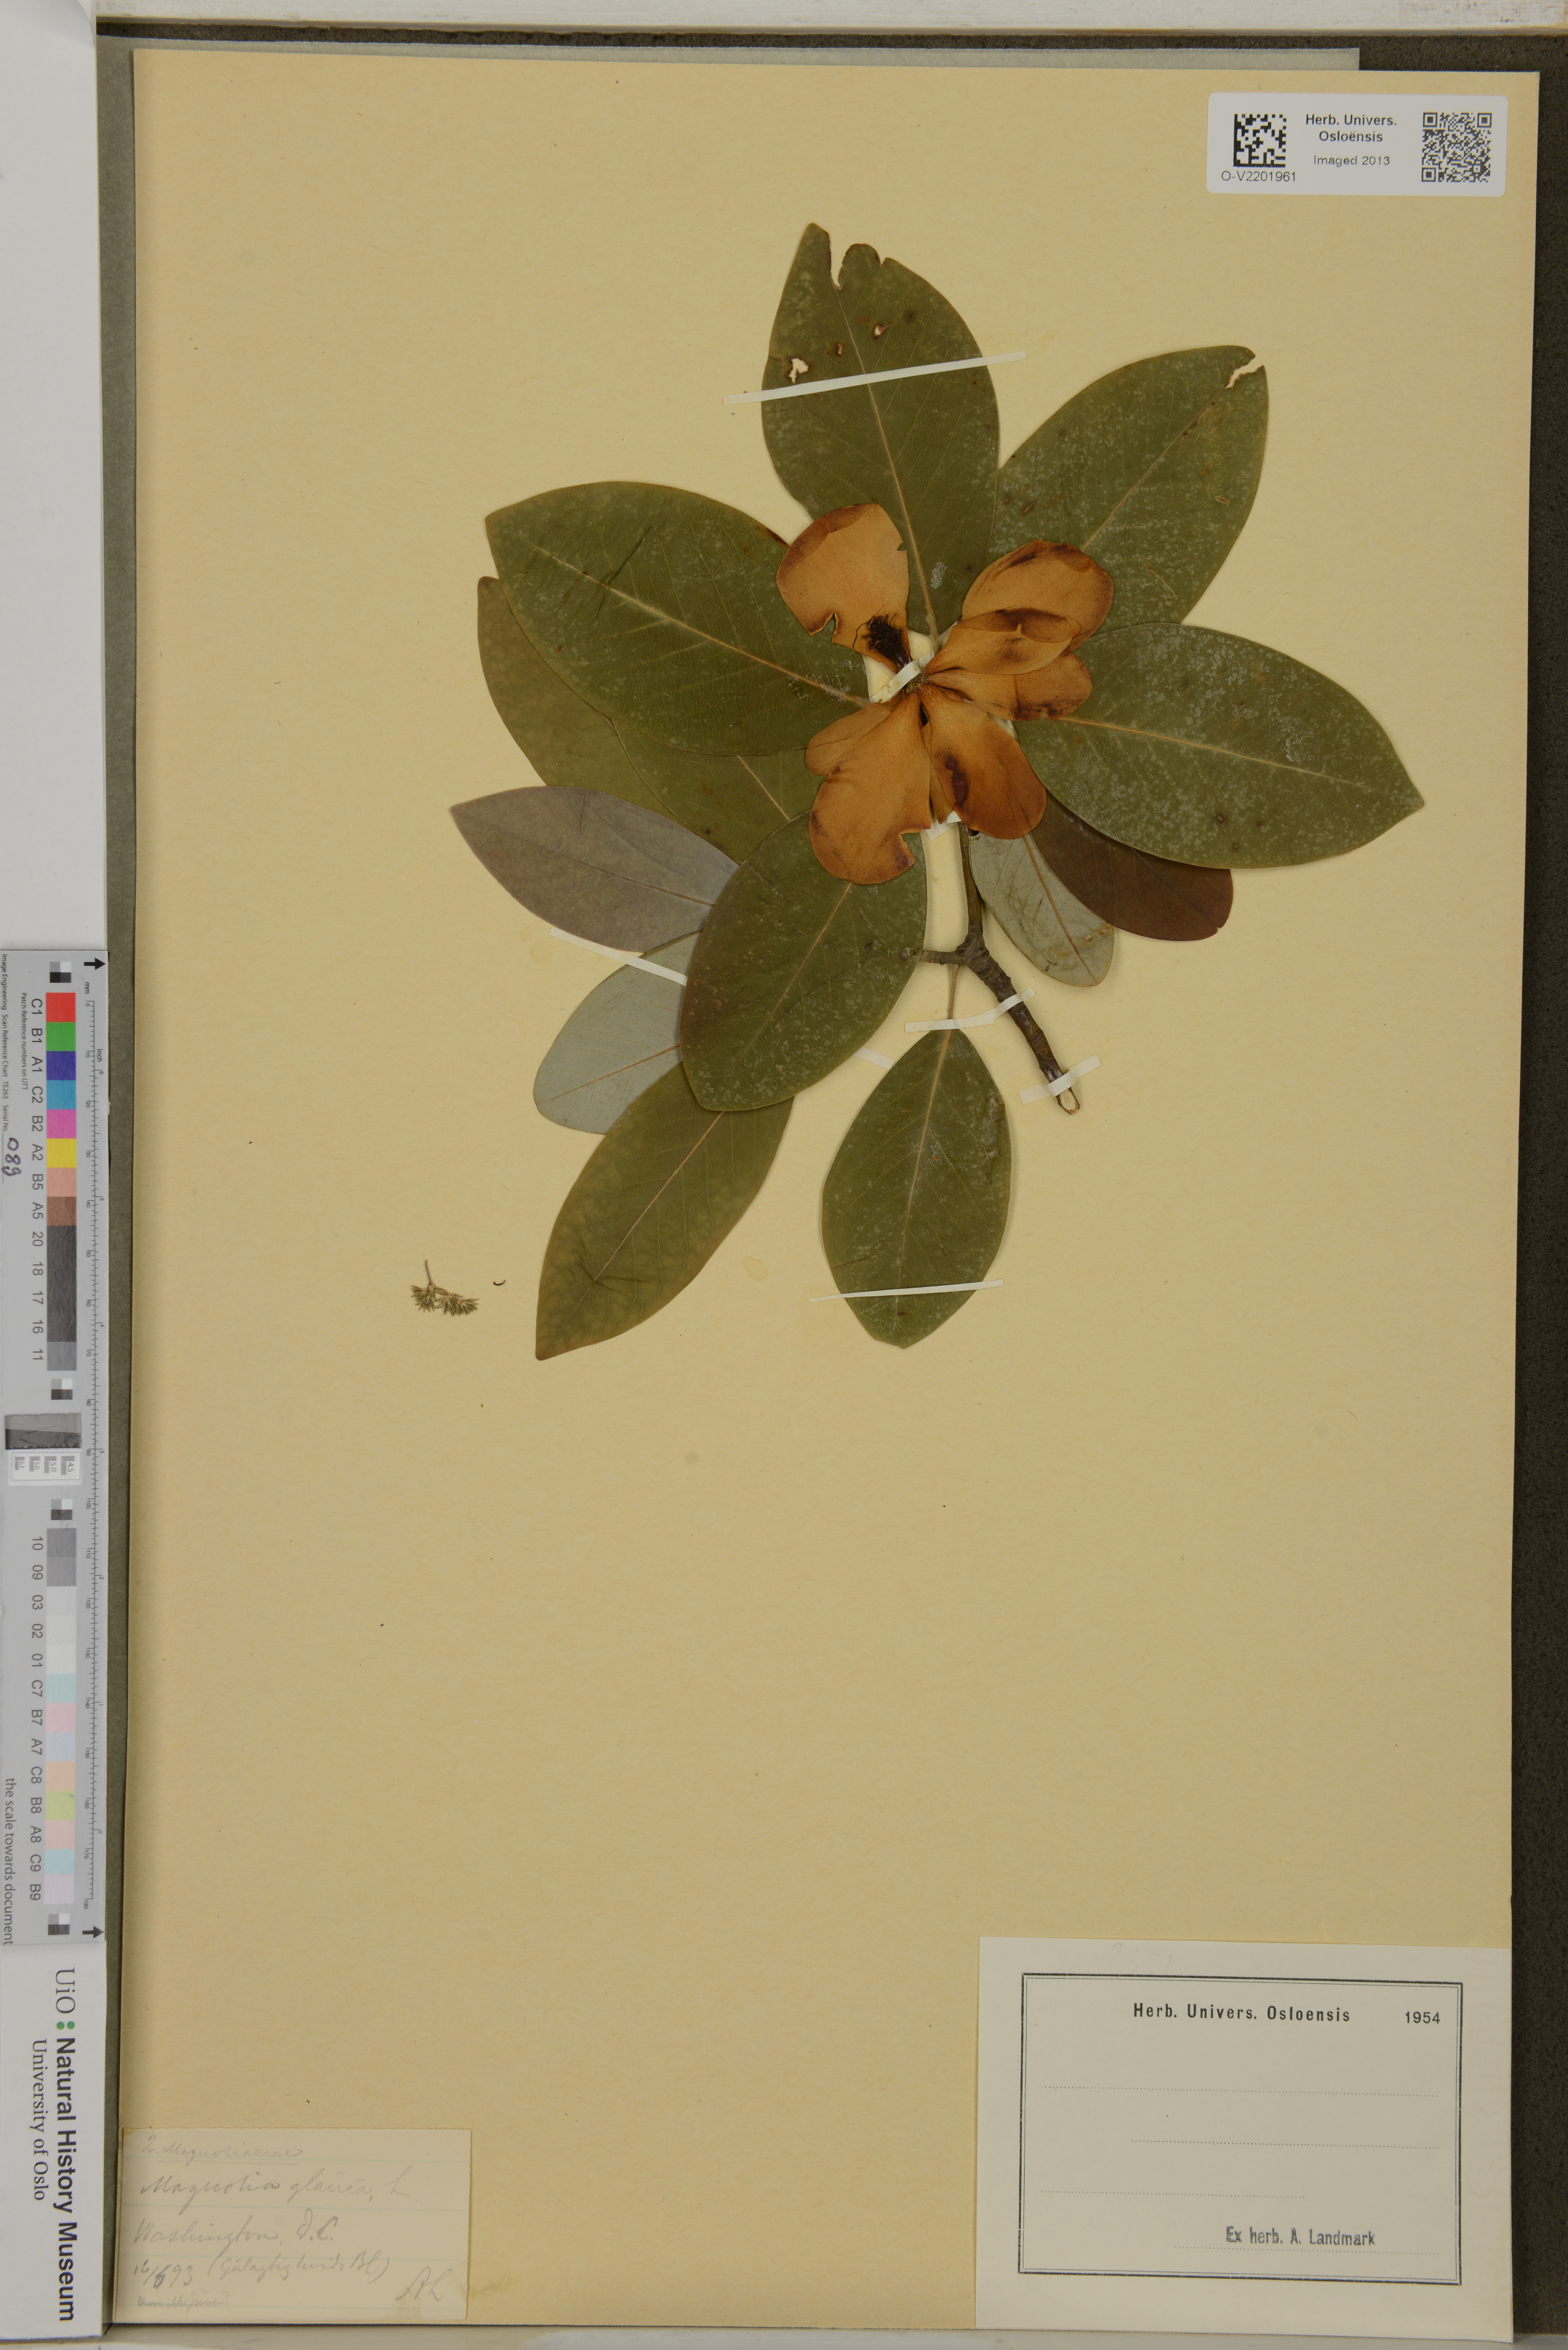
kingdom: Plantae
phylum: Tracheophyta
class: Magnoliopsida
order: Magnoliales
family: Magnoliaceae
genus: Magnolia
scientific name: Magnolia
